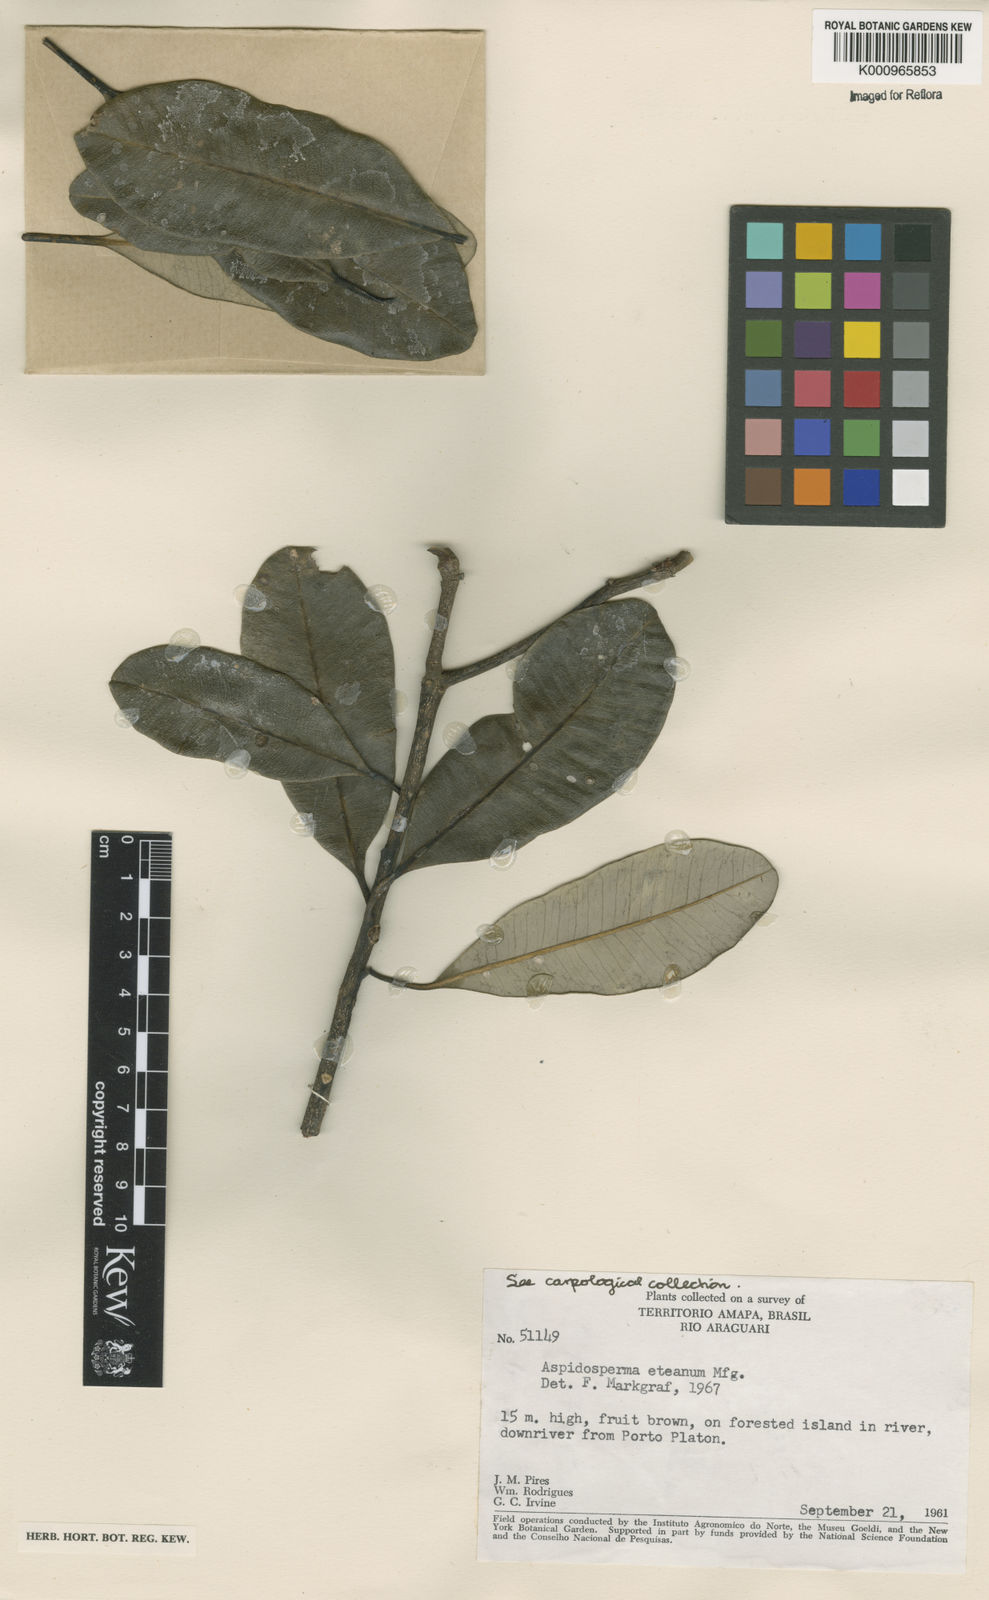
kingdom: Plantae
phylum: Tracheophyta
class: Magnoliopsida
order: Gentianales
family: Apocynaceae
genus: Aspidosperma
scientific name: Aspidosperma eteanum
